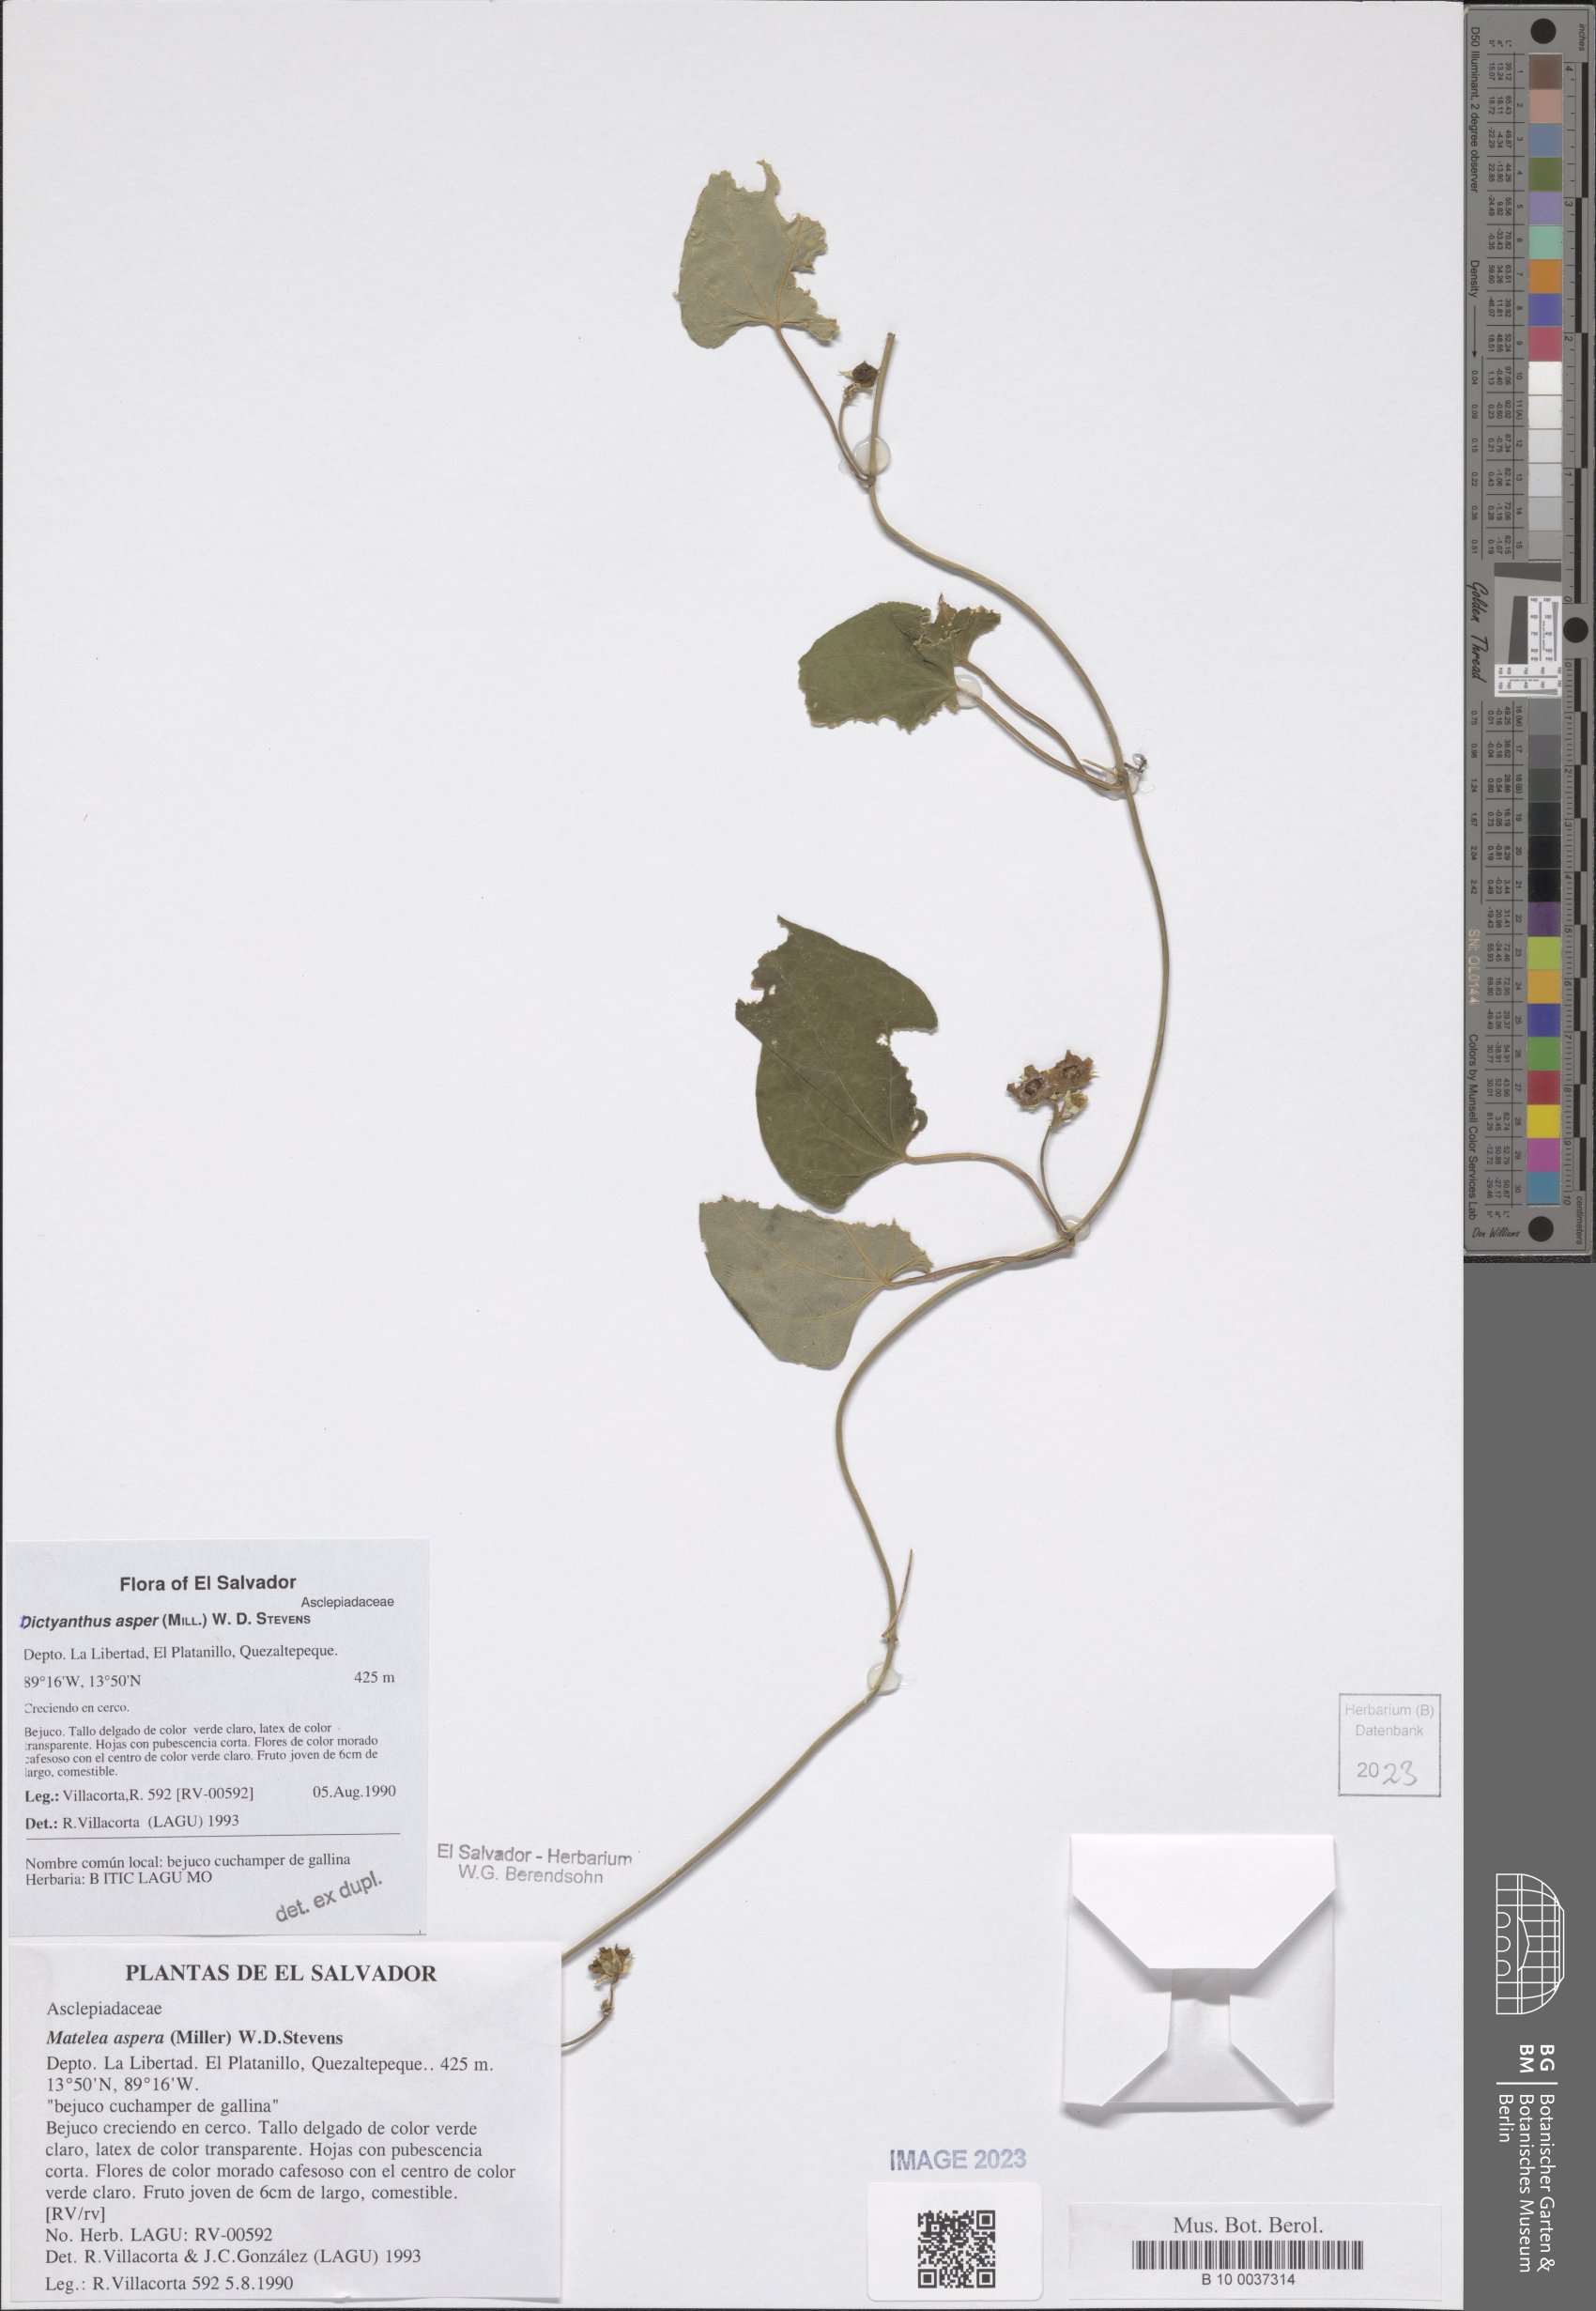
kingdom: Plantae
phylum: Tracheophyta
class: Magnoliopsida
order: Gentianales
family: Apocynaceae
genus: Dictyanthus
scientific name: Dictyanthus asper
